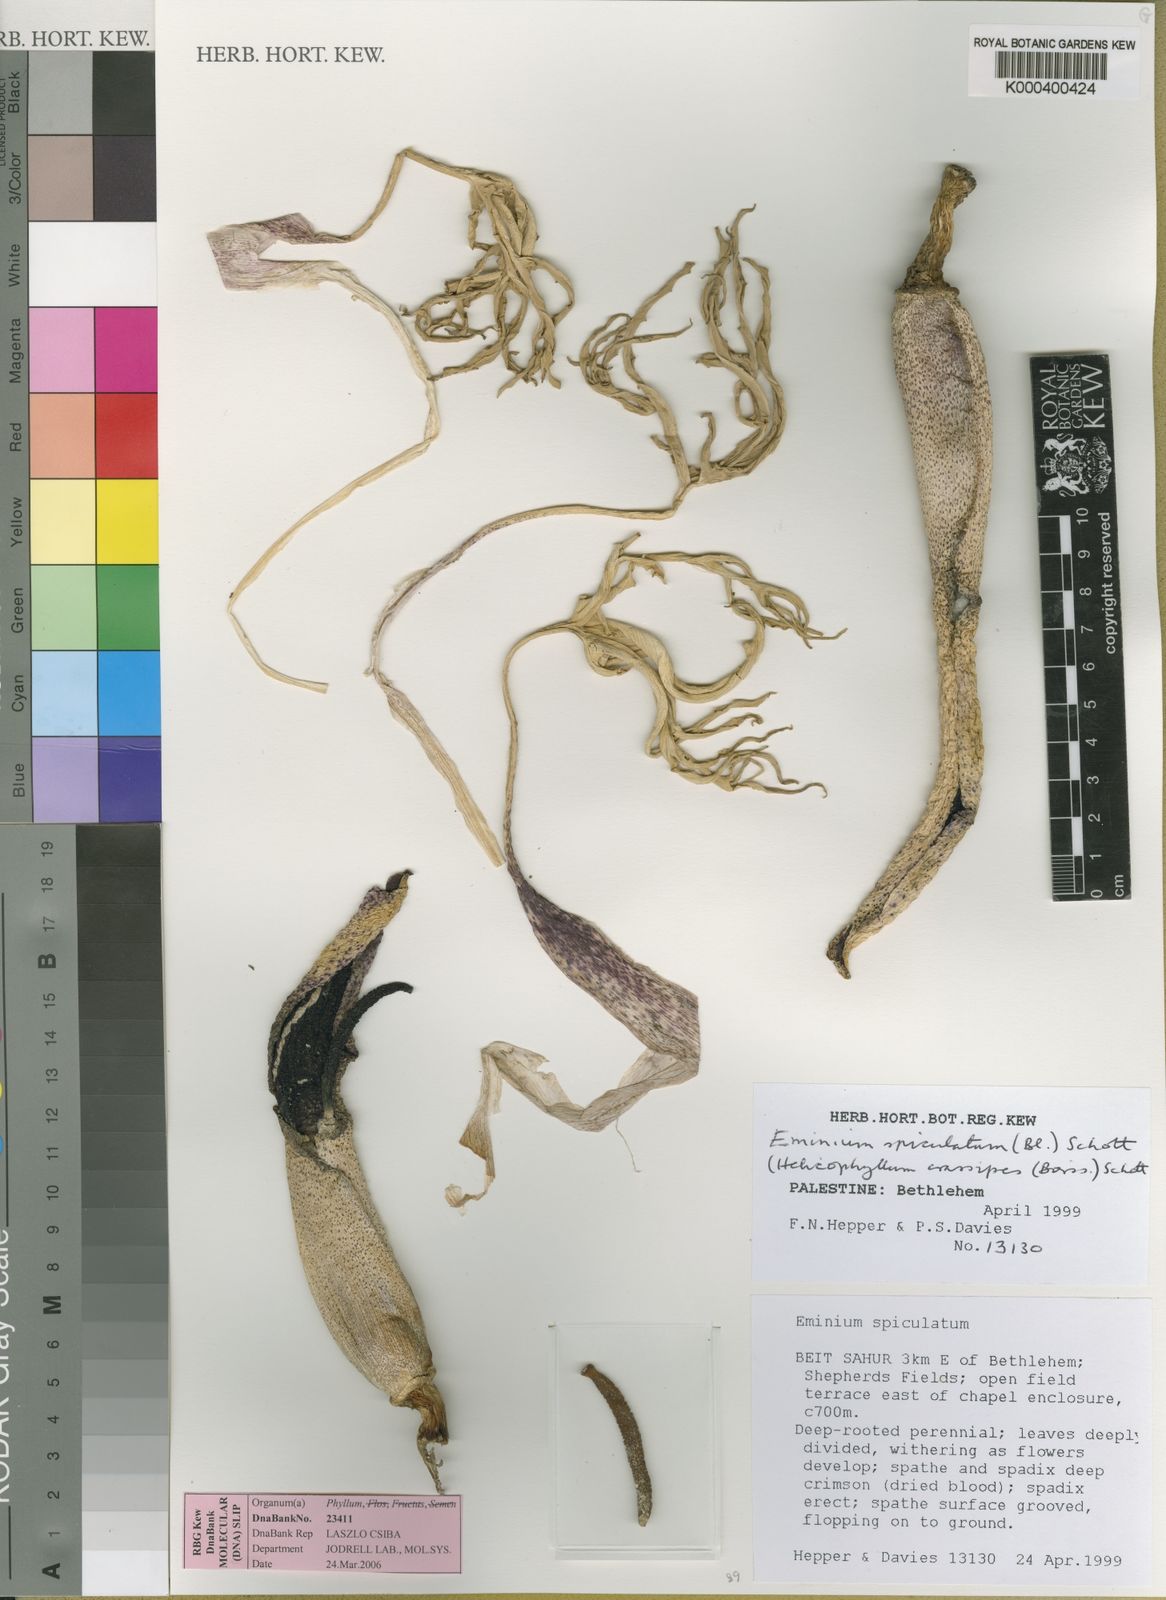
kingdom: Plantae
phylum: Tracheophyta
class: Liliopsida
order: Alismatales
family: Araceae
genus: Eminium
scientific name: Eminium spiculatum
